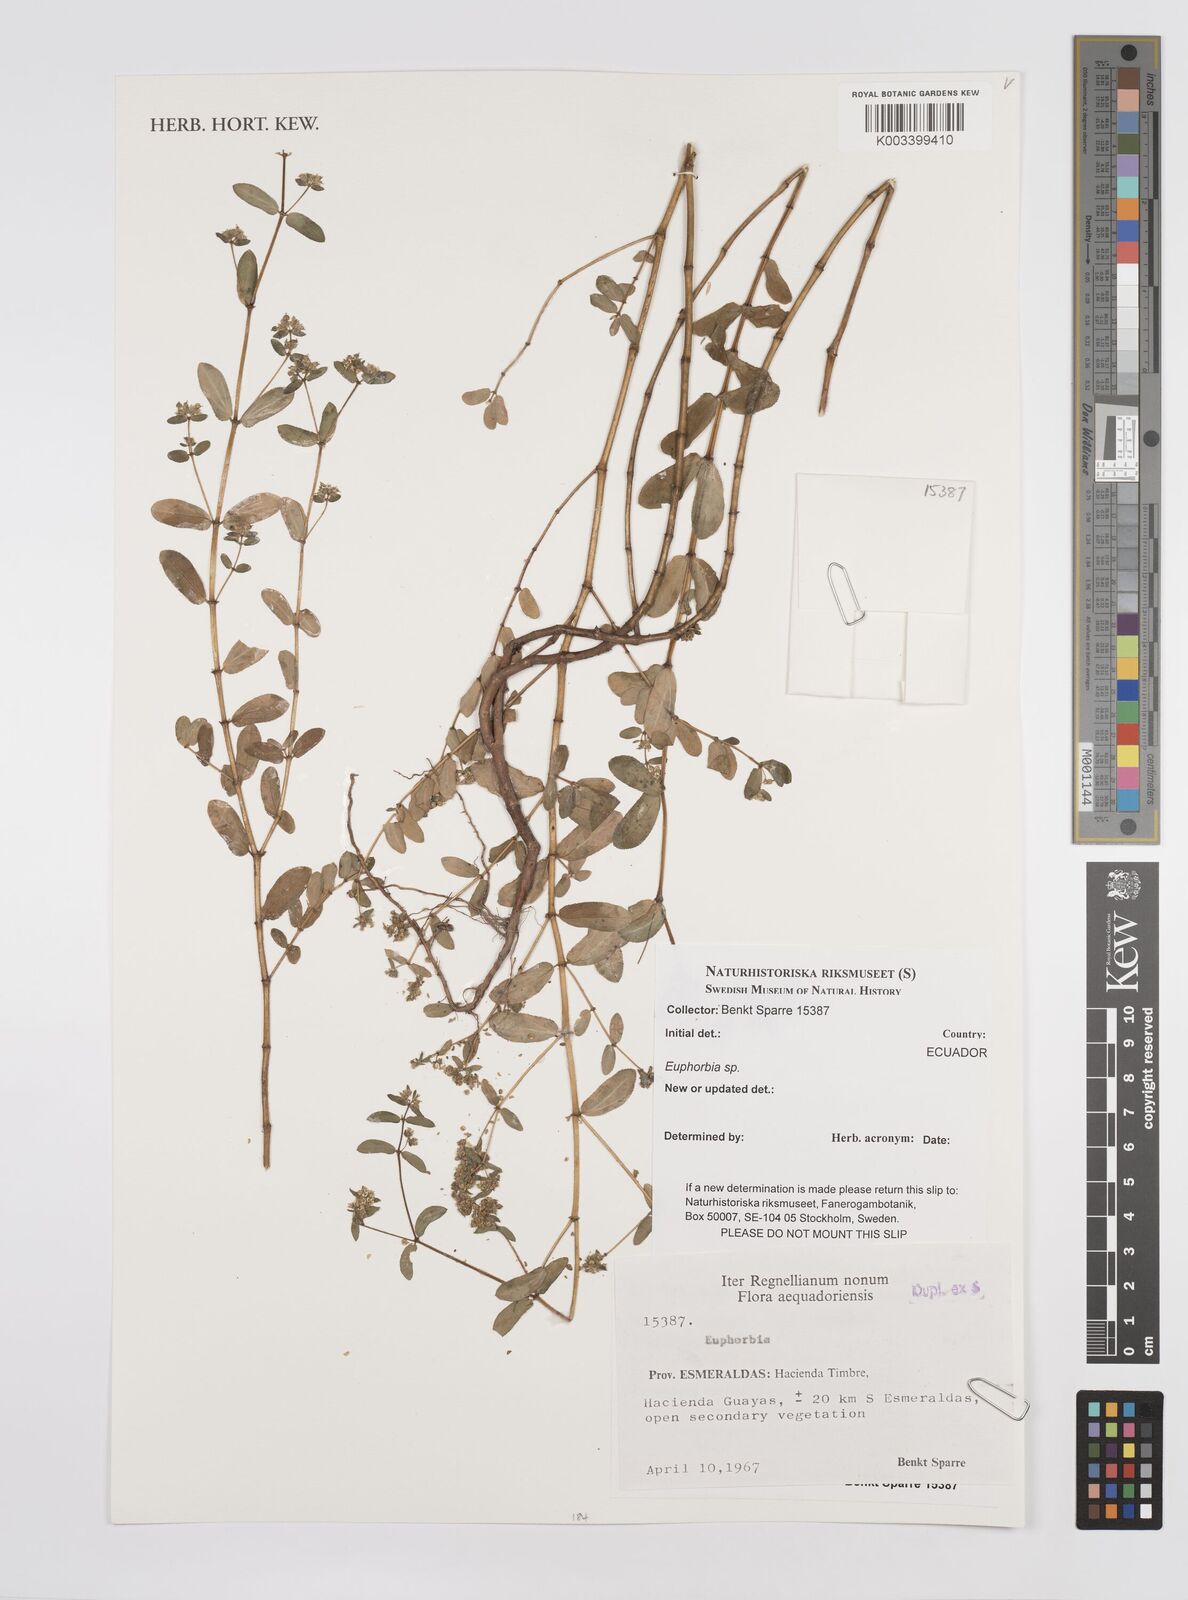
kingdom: Plantae
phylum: Tracheophyta
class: Magnoliopsida
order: Malpighiales
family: Euphorbiaceae
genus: Euphorbia
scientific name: Euphorbia
